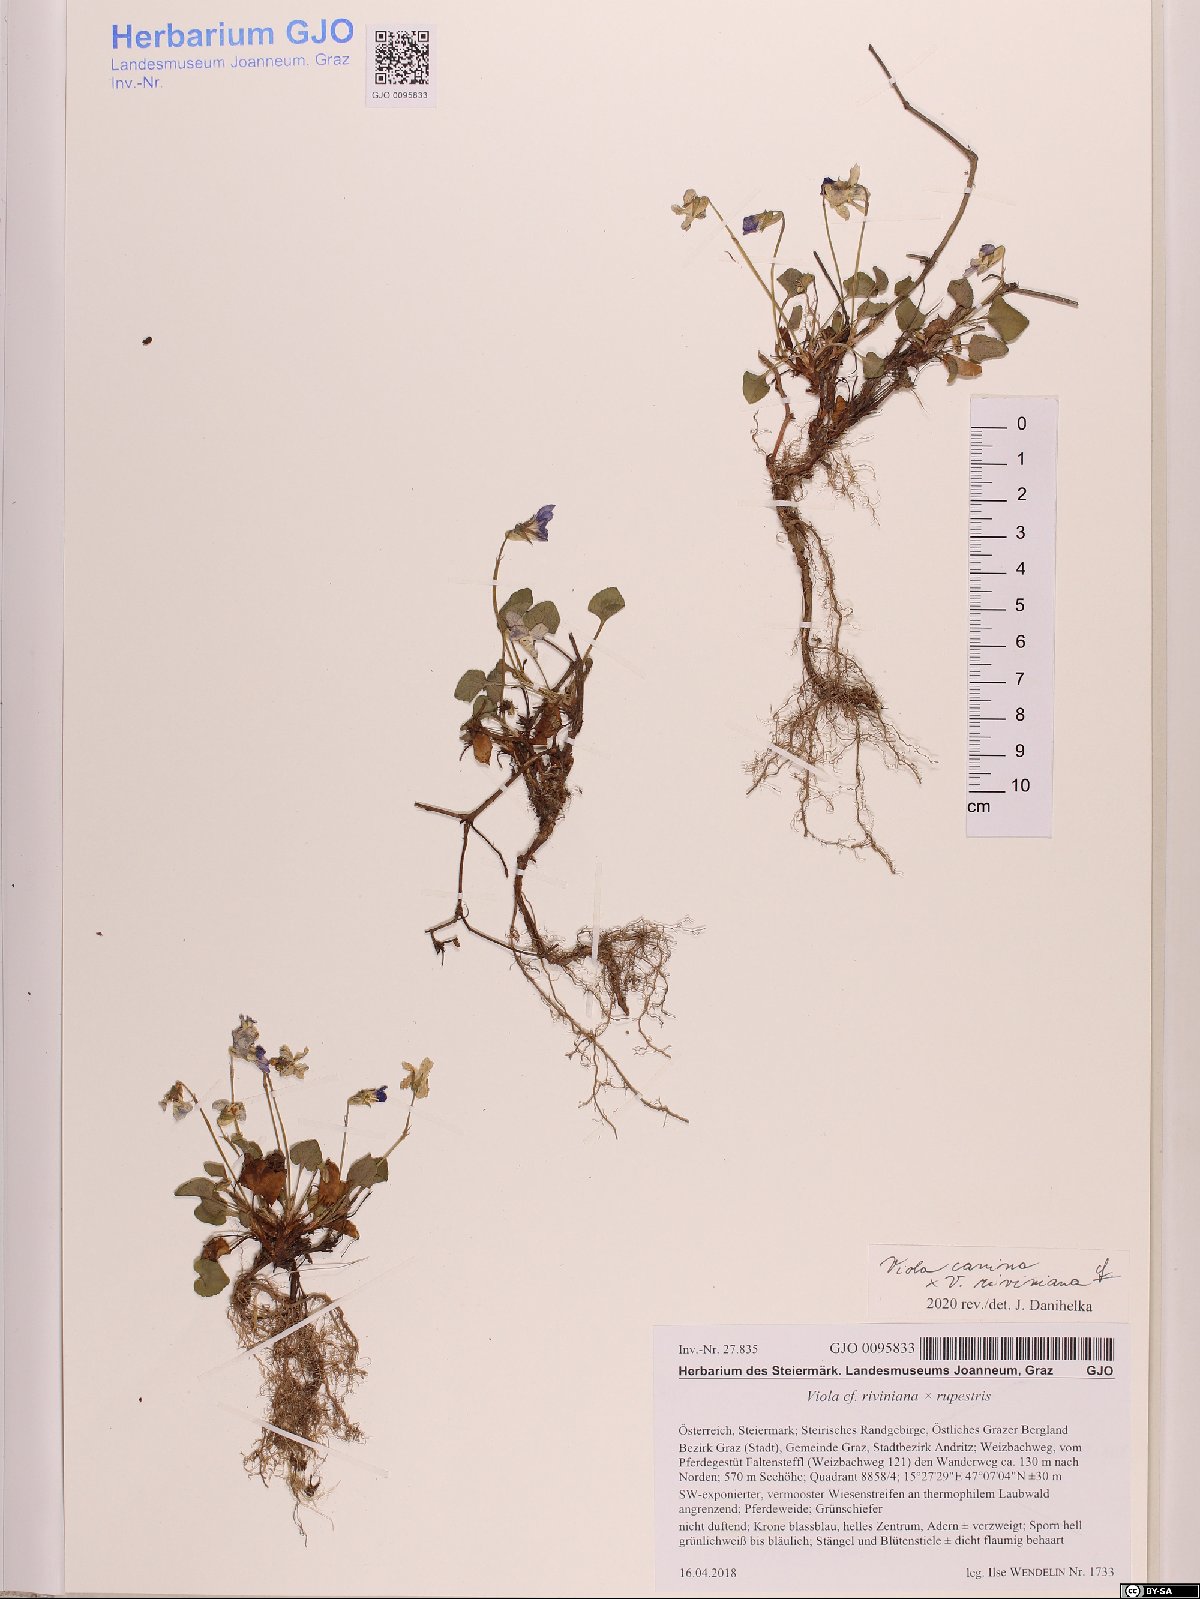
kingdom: Plantae
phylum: Tracheophyta
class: Magnoliopsida
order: Malpighiales
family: Violaceae
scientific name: Violaceae
